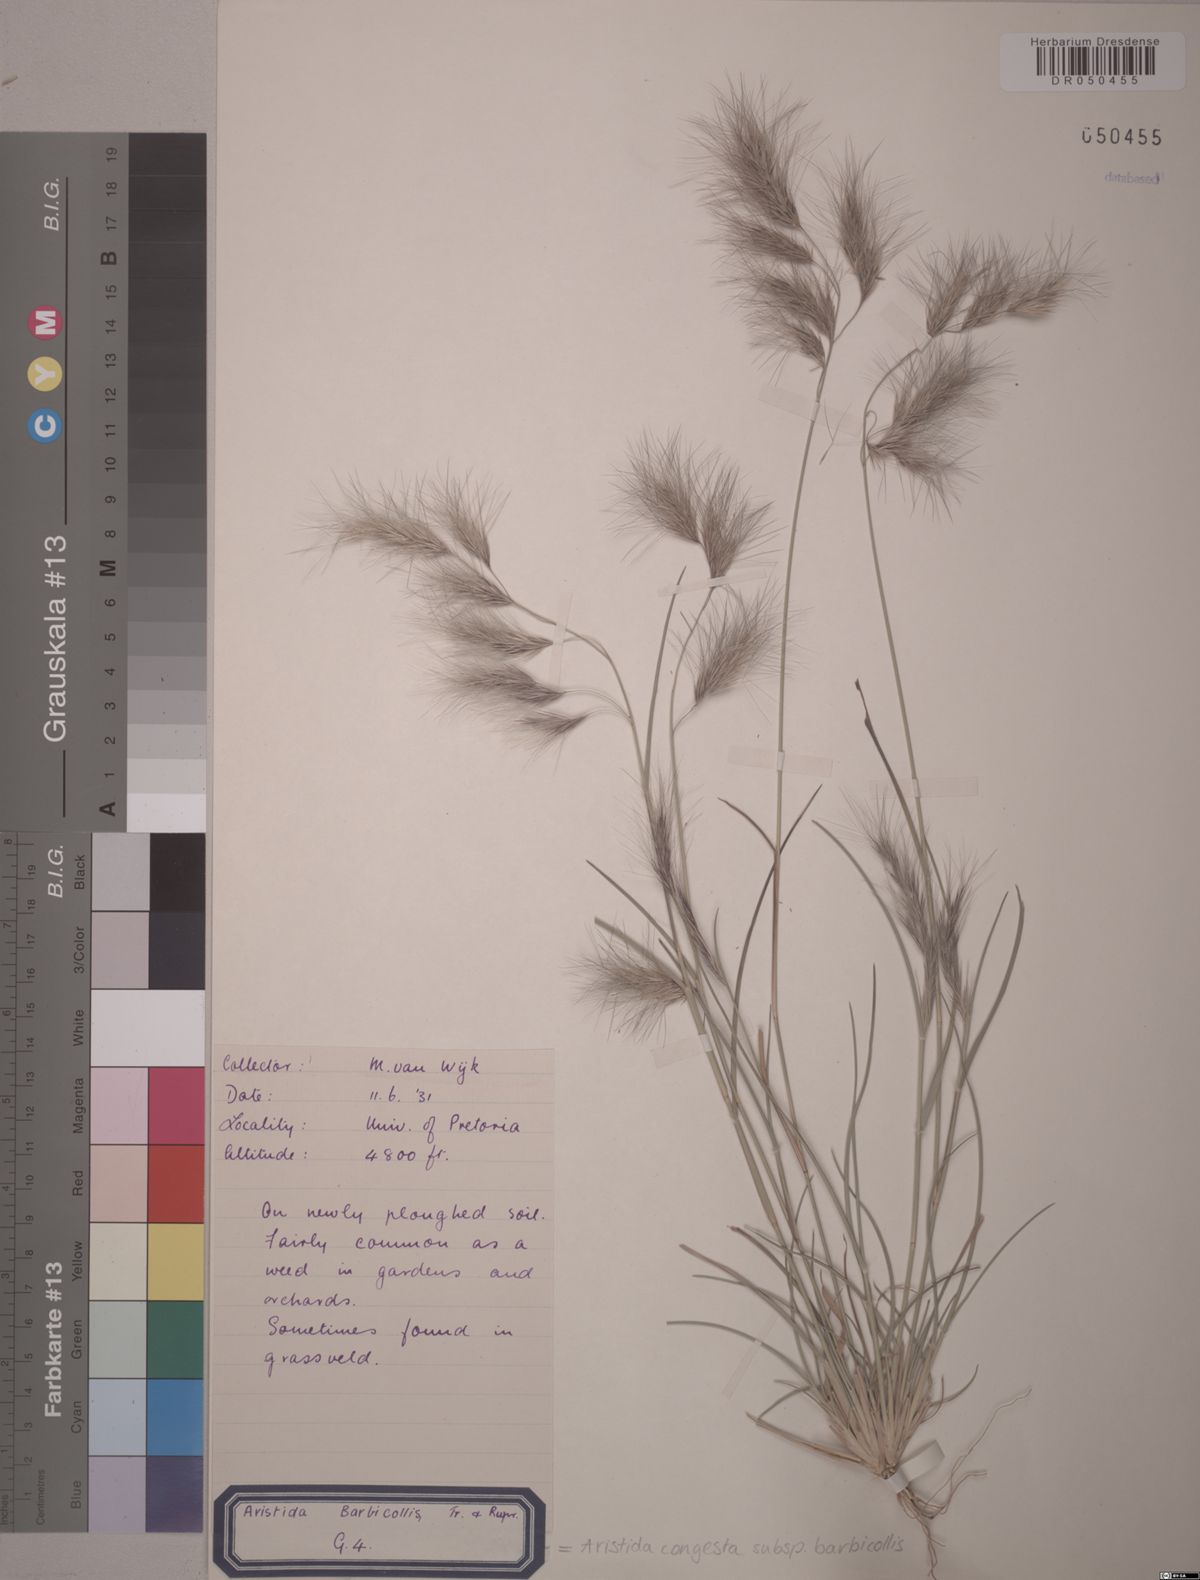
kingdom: Plantae
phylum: Tracheophyta
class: Liliopsida
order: Poales
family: Poaceae
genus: Aristida
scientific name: Aristida barbicollis
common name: Spreading prickle grass
